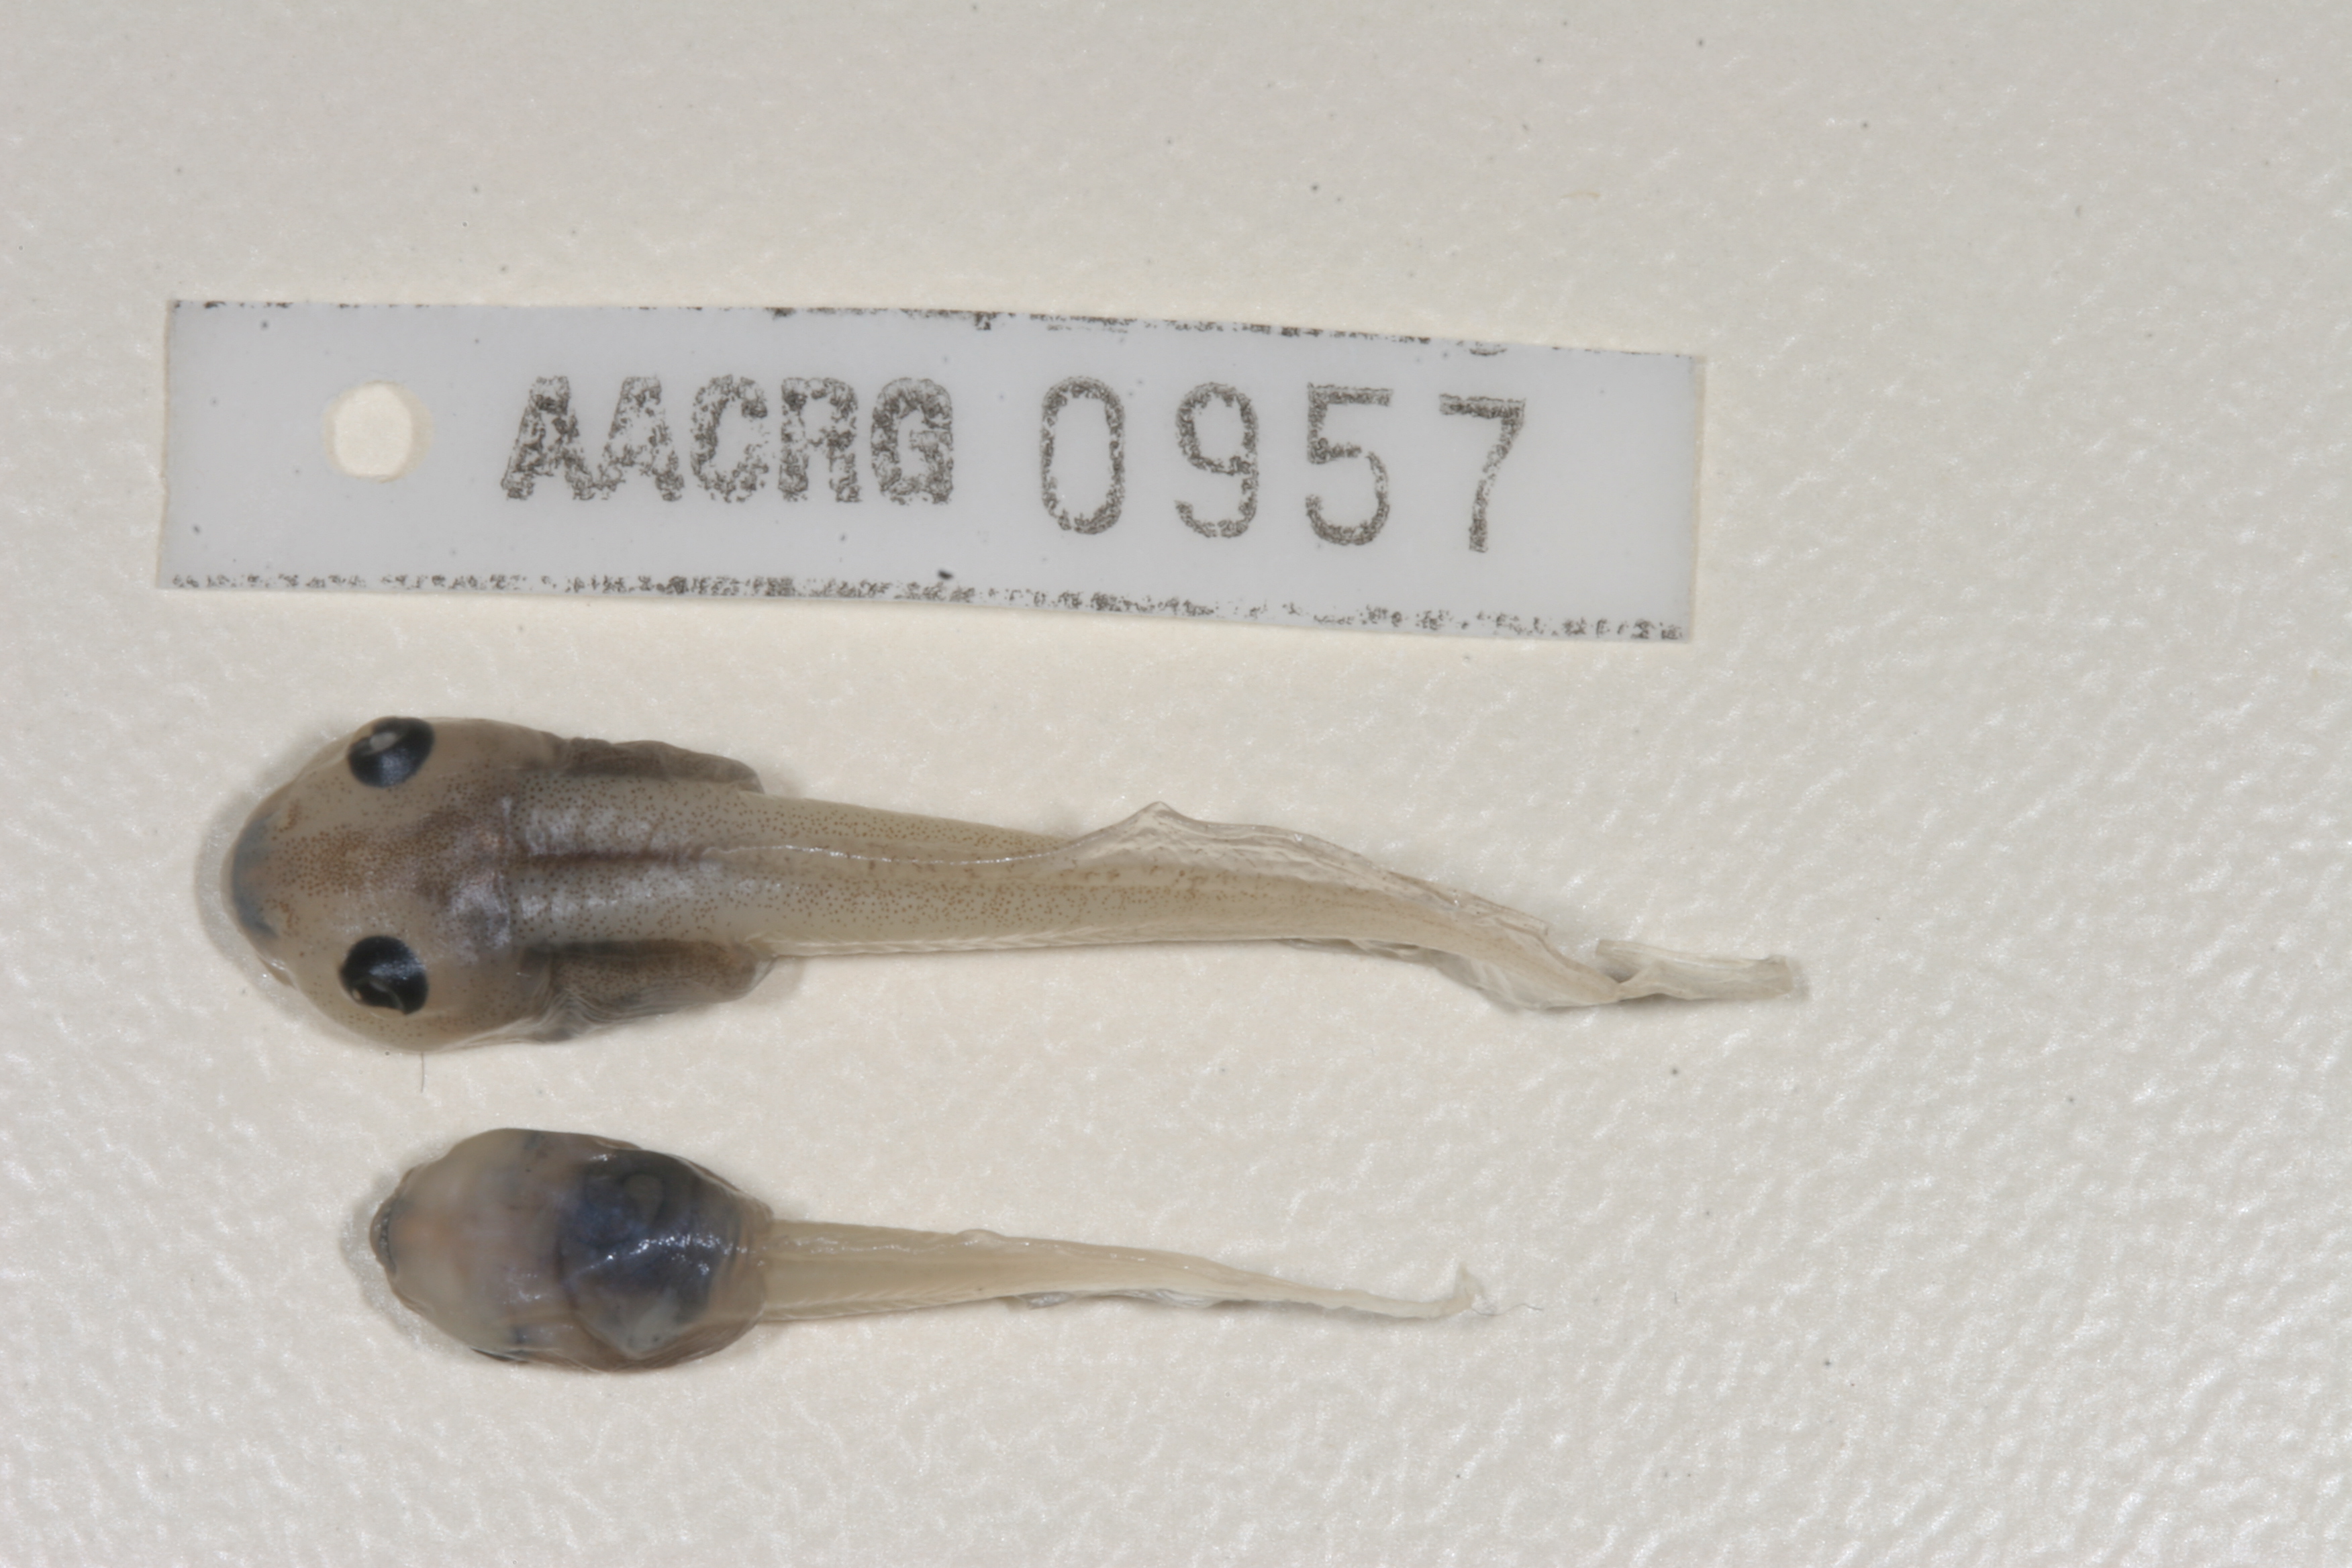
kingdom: Animalia
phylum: Chordata
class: Amphibia
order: Anura
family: Ptychadenidae
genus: Hildebrandtia
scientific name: Hildebrandtia ornata
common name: Ornate frog
